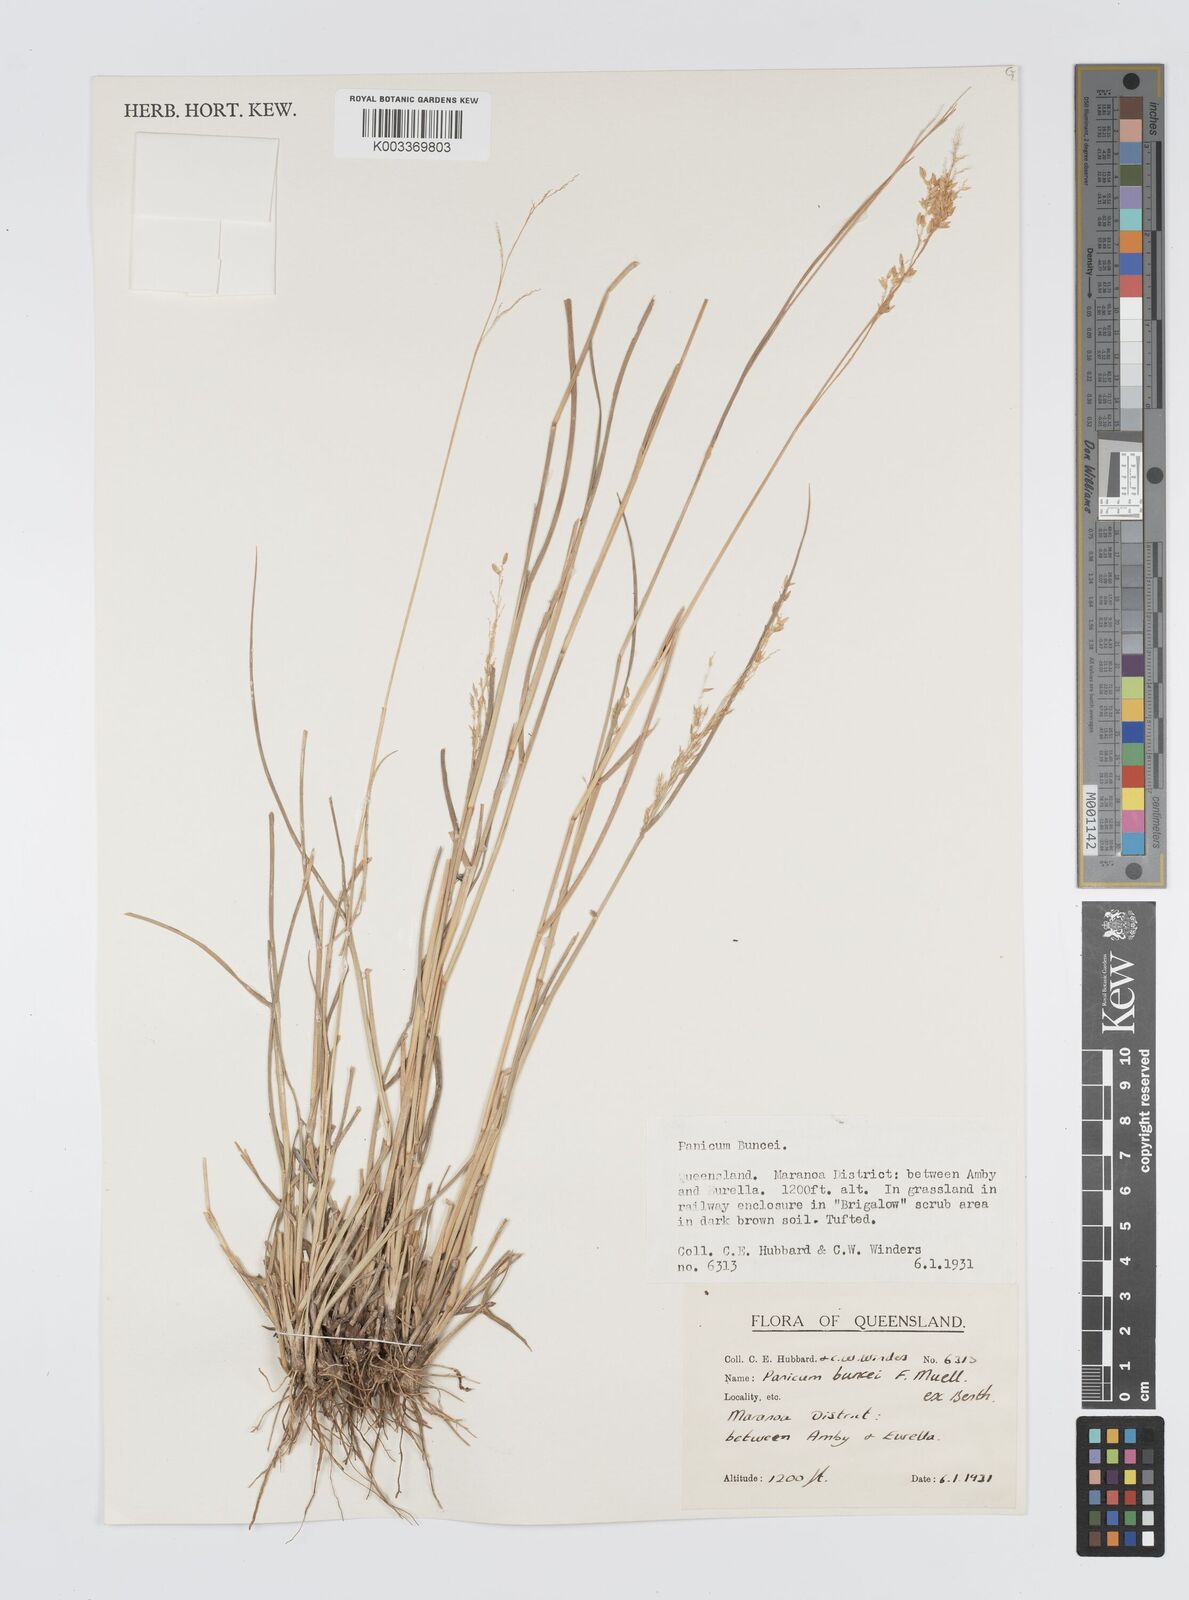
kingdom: Plantae
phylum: Tracheophyta
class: Liliopsida
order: Poales
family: Poaceae
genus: Panicum
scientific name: Panicum buncei
